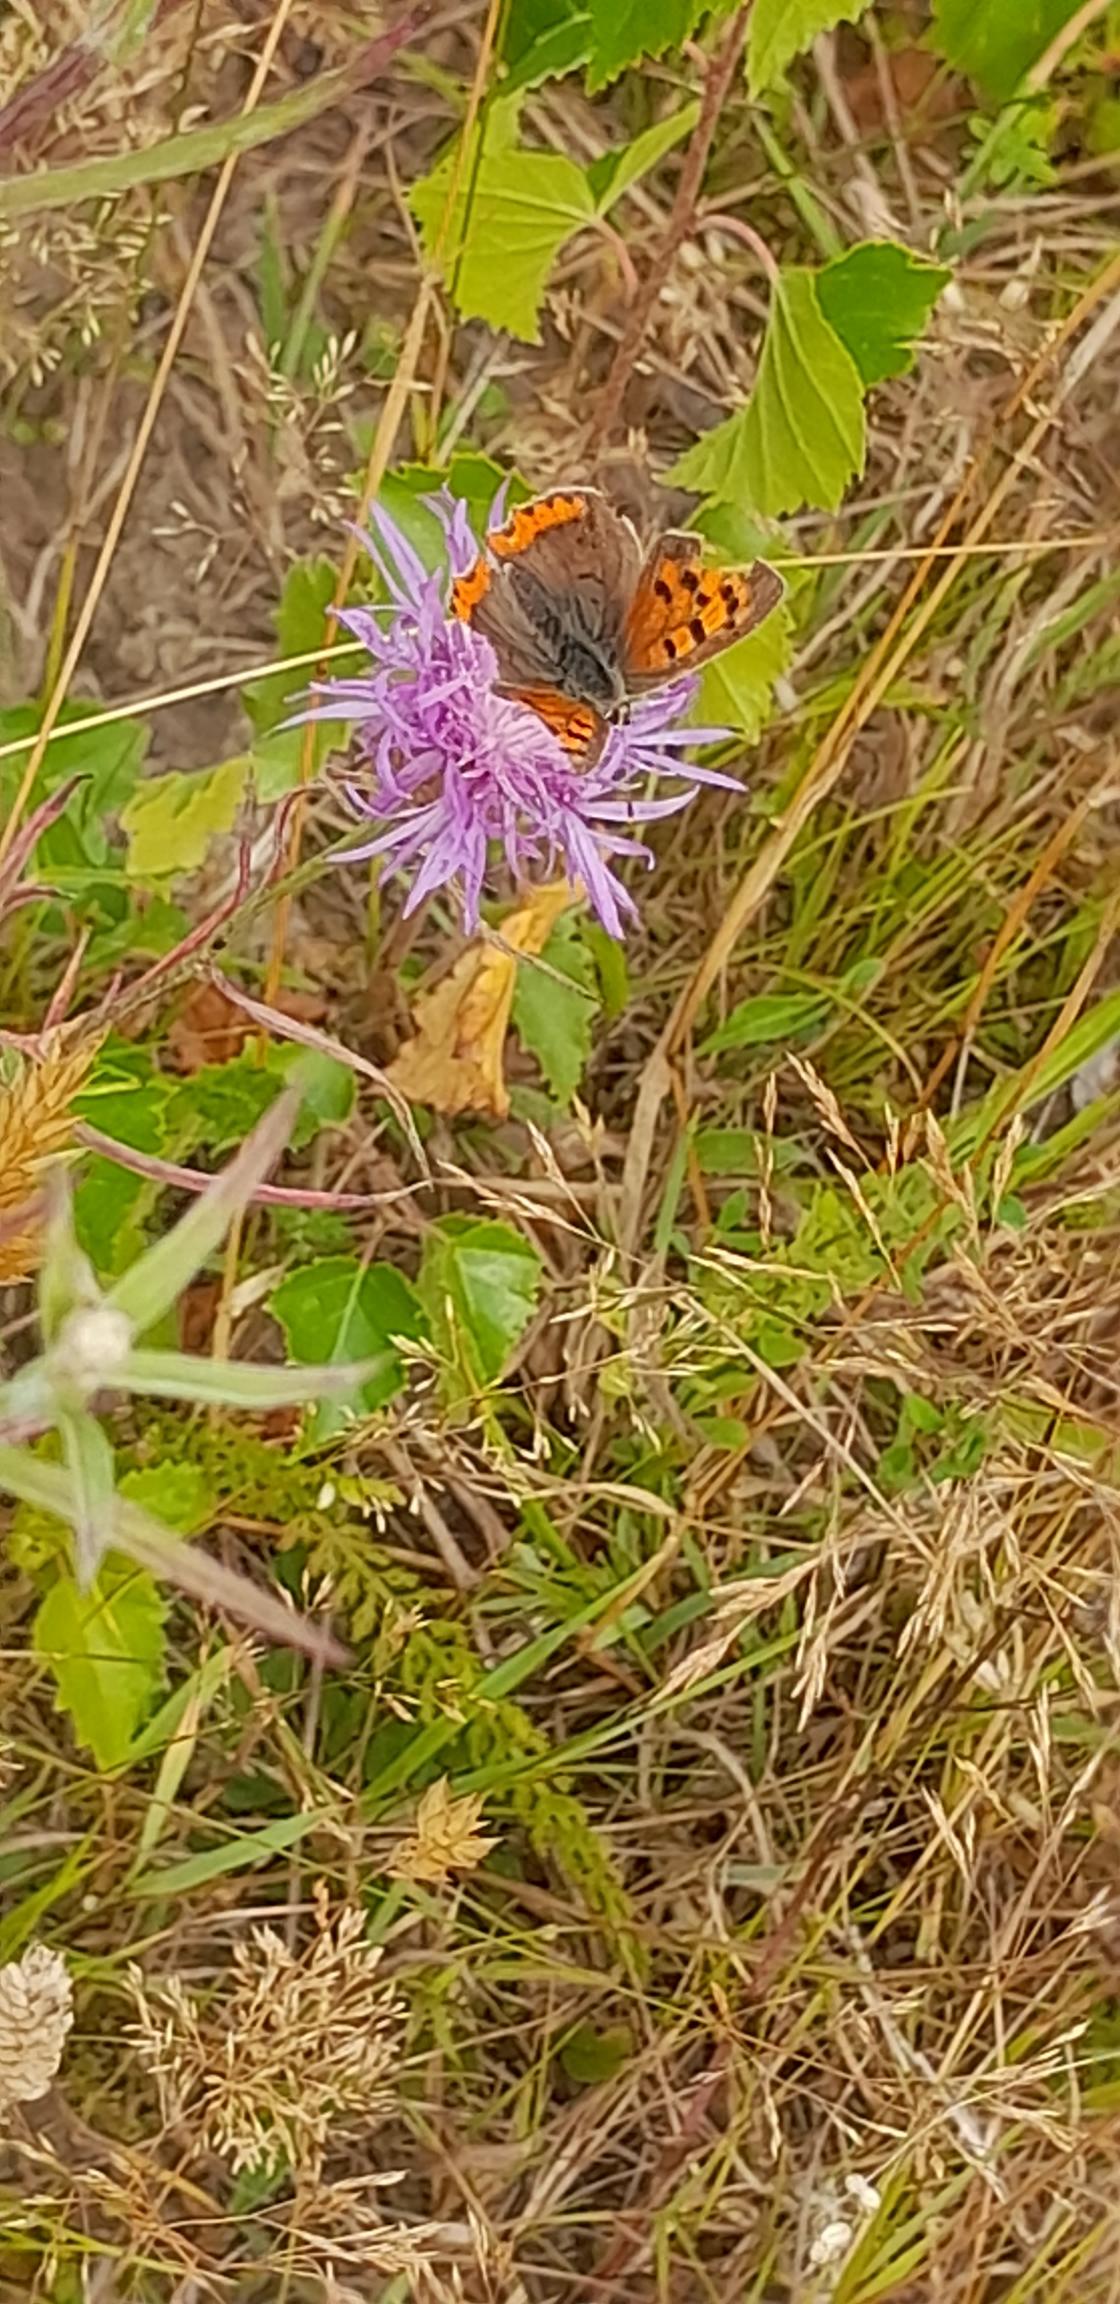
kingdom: Animalia
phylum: Arthropoda
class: Insecta
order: Lepidoptera
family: Lycaenidae
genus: Lycaena
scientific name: Lycaena phlaeas
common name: Lille ildfugl
